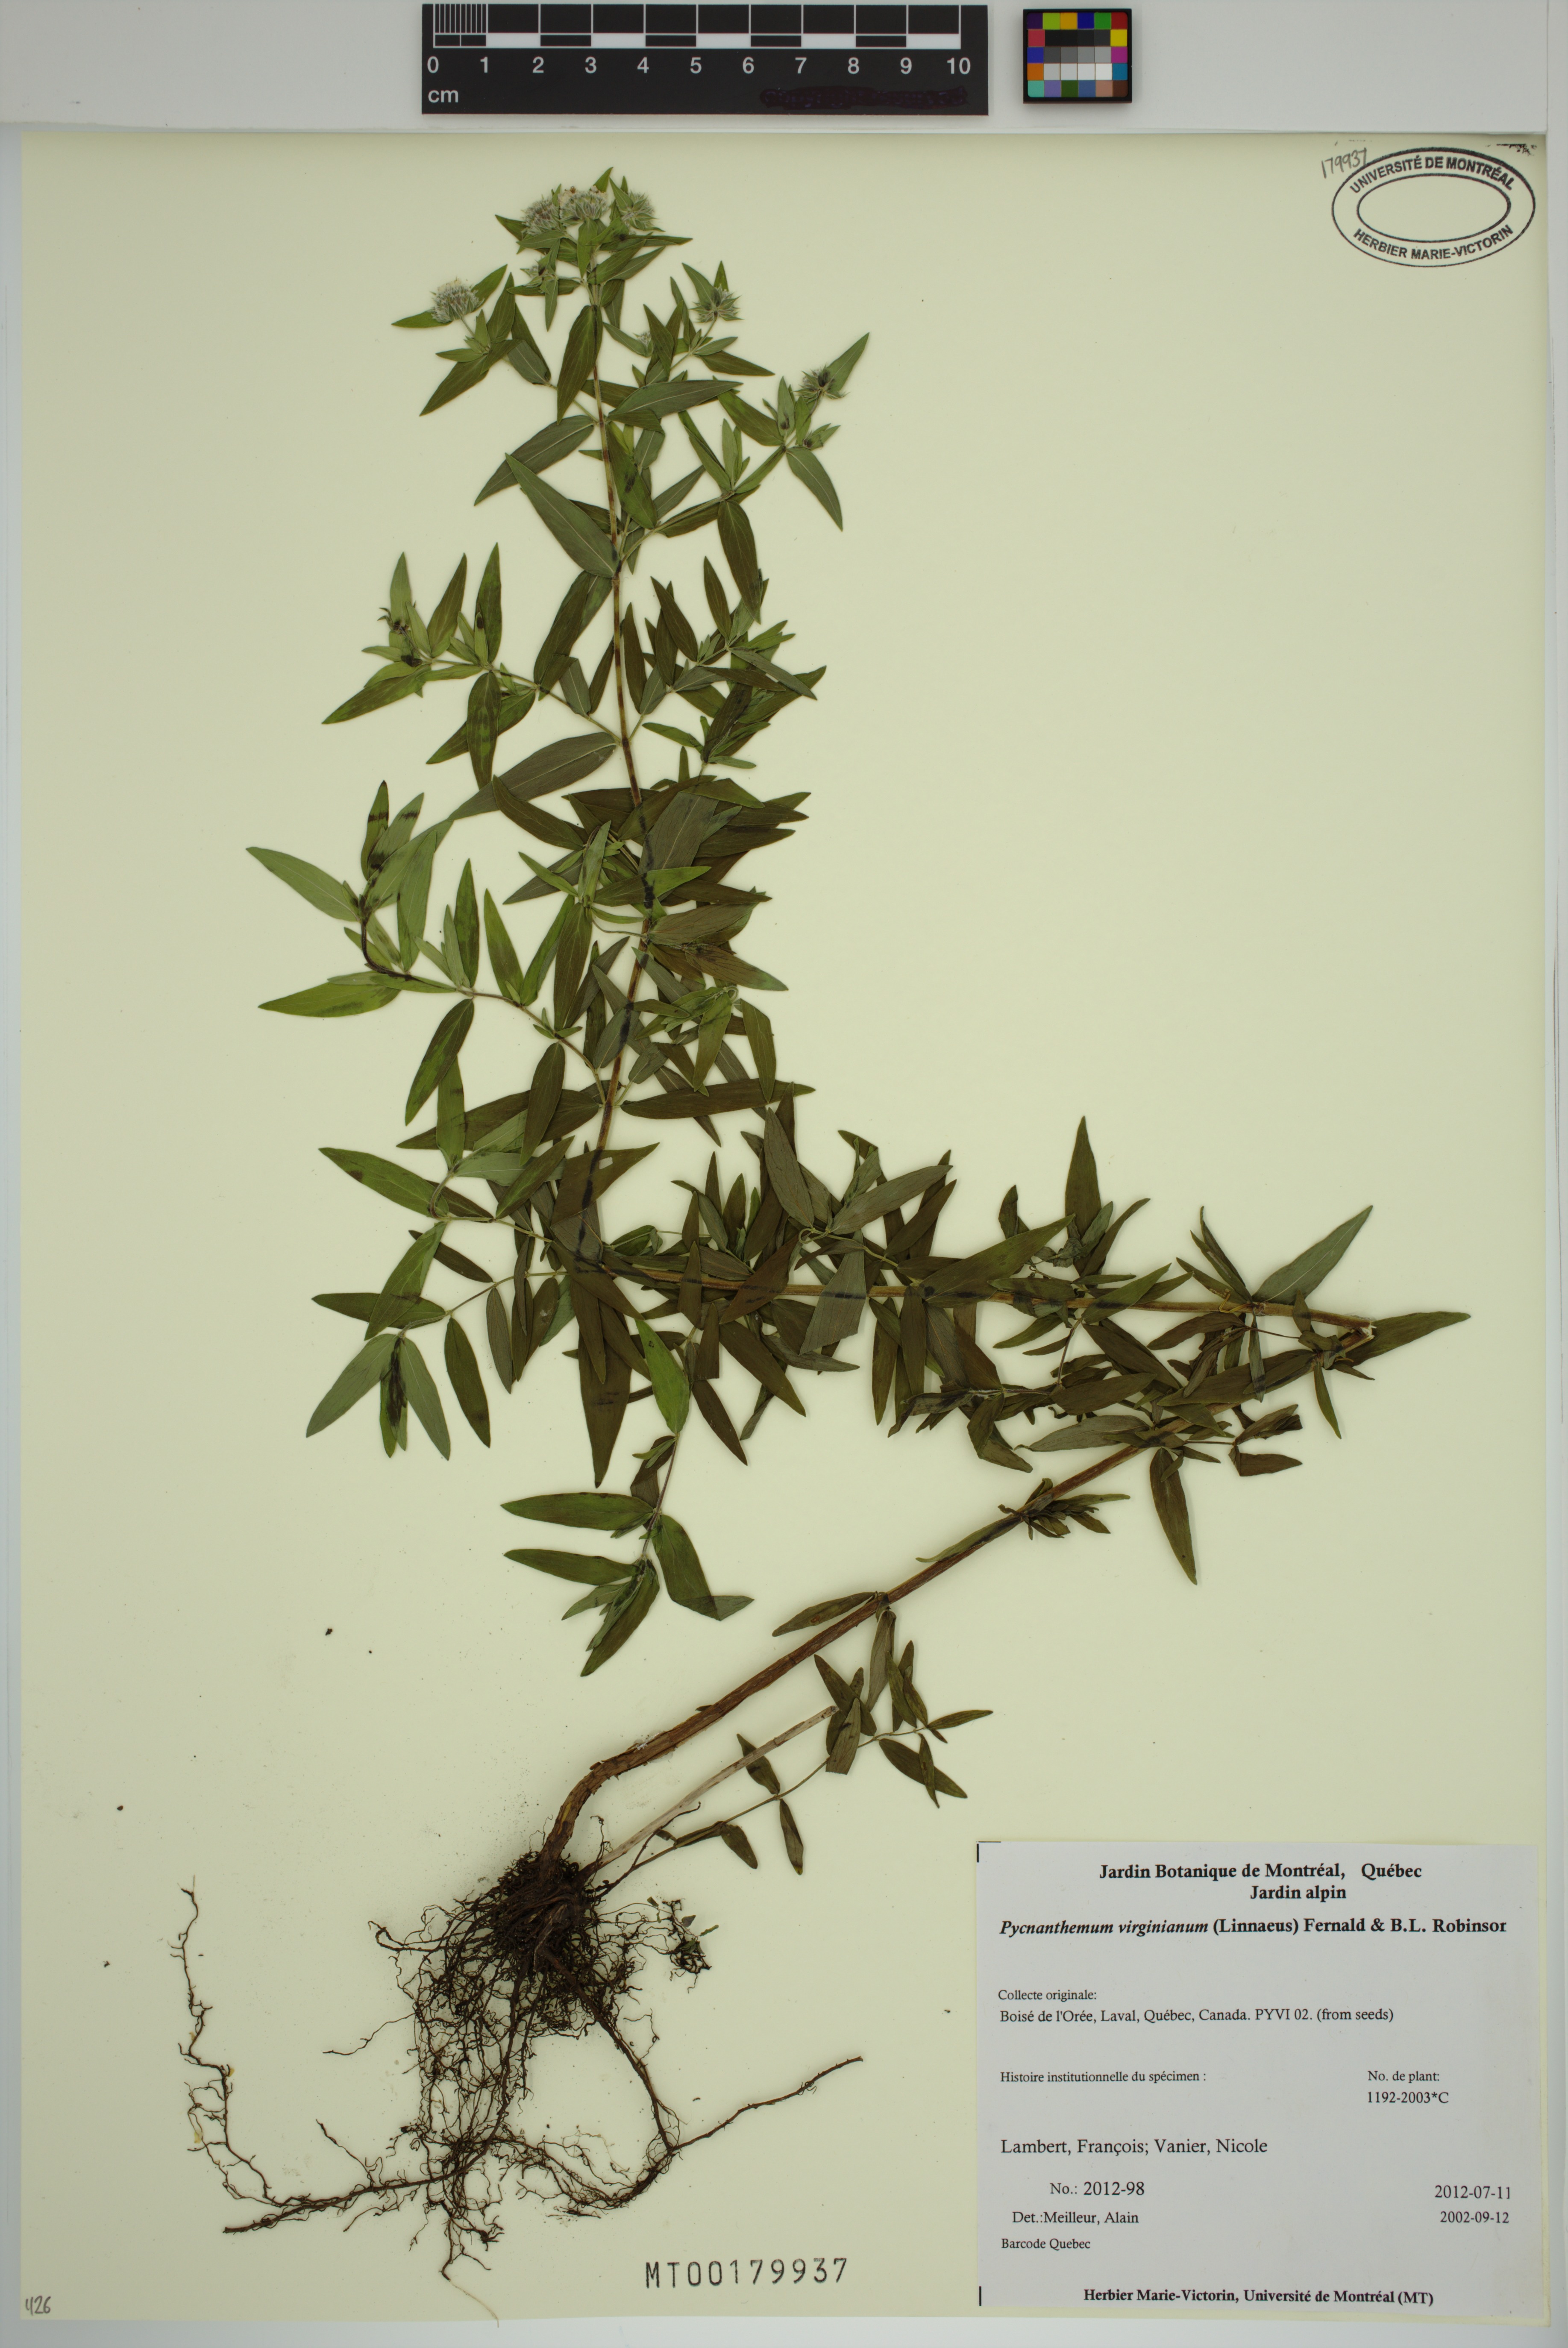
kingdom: Plantae
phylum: Tracheophyta
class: Magnoliopsida
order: Lamiales
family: Lamiaceae
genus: Pycnanthemum
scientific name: Pycnanthemum virginianum
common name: Virginia mountain-mint
